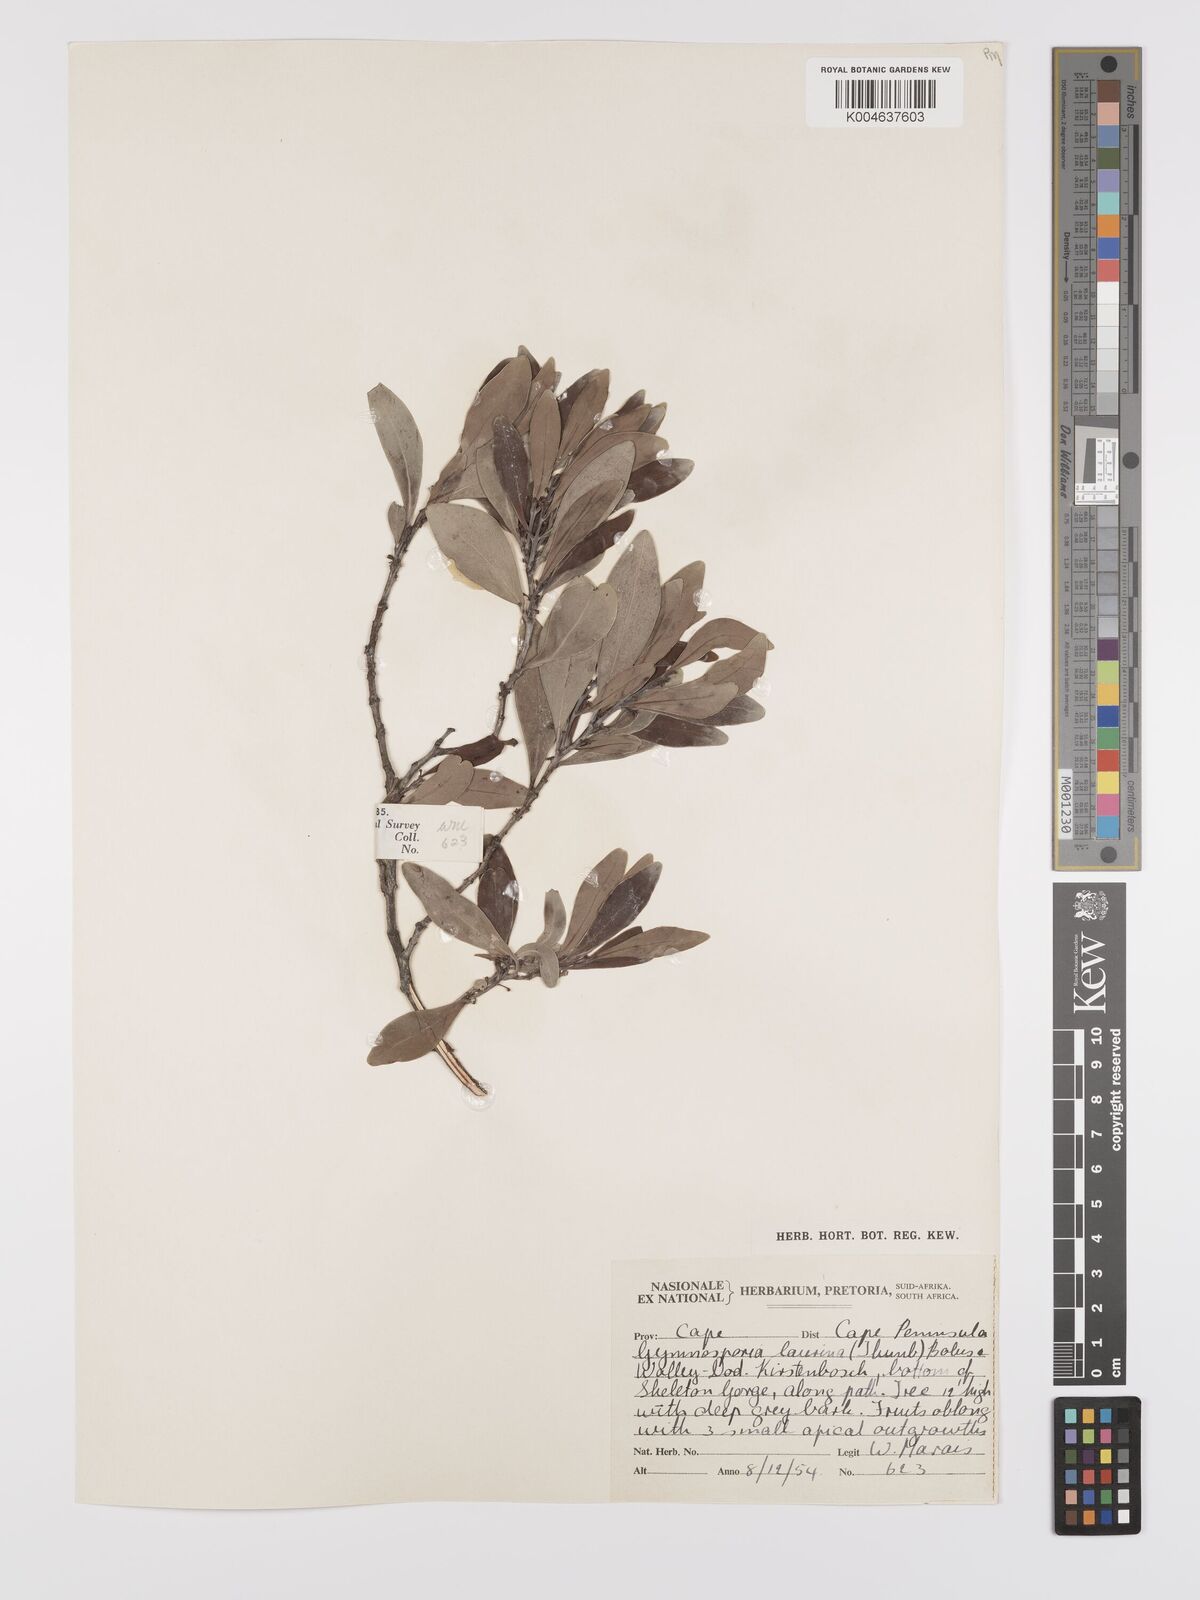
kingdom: Plantae
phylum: Tracheophyta
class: Magnoliopsida
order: Celastrales
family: Celastraceae
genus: Monteverdia
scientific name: Monteverdia laurina
